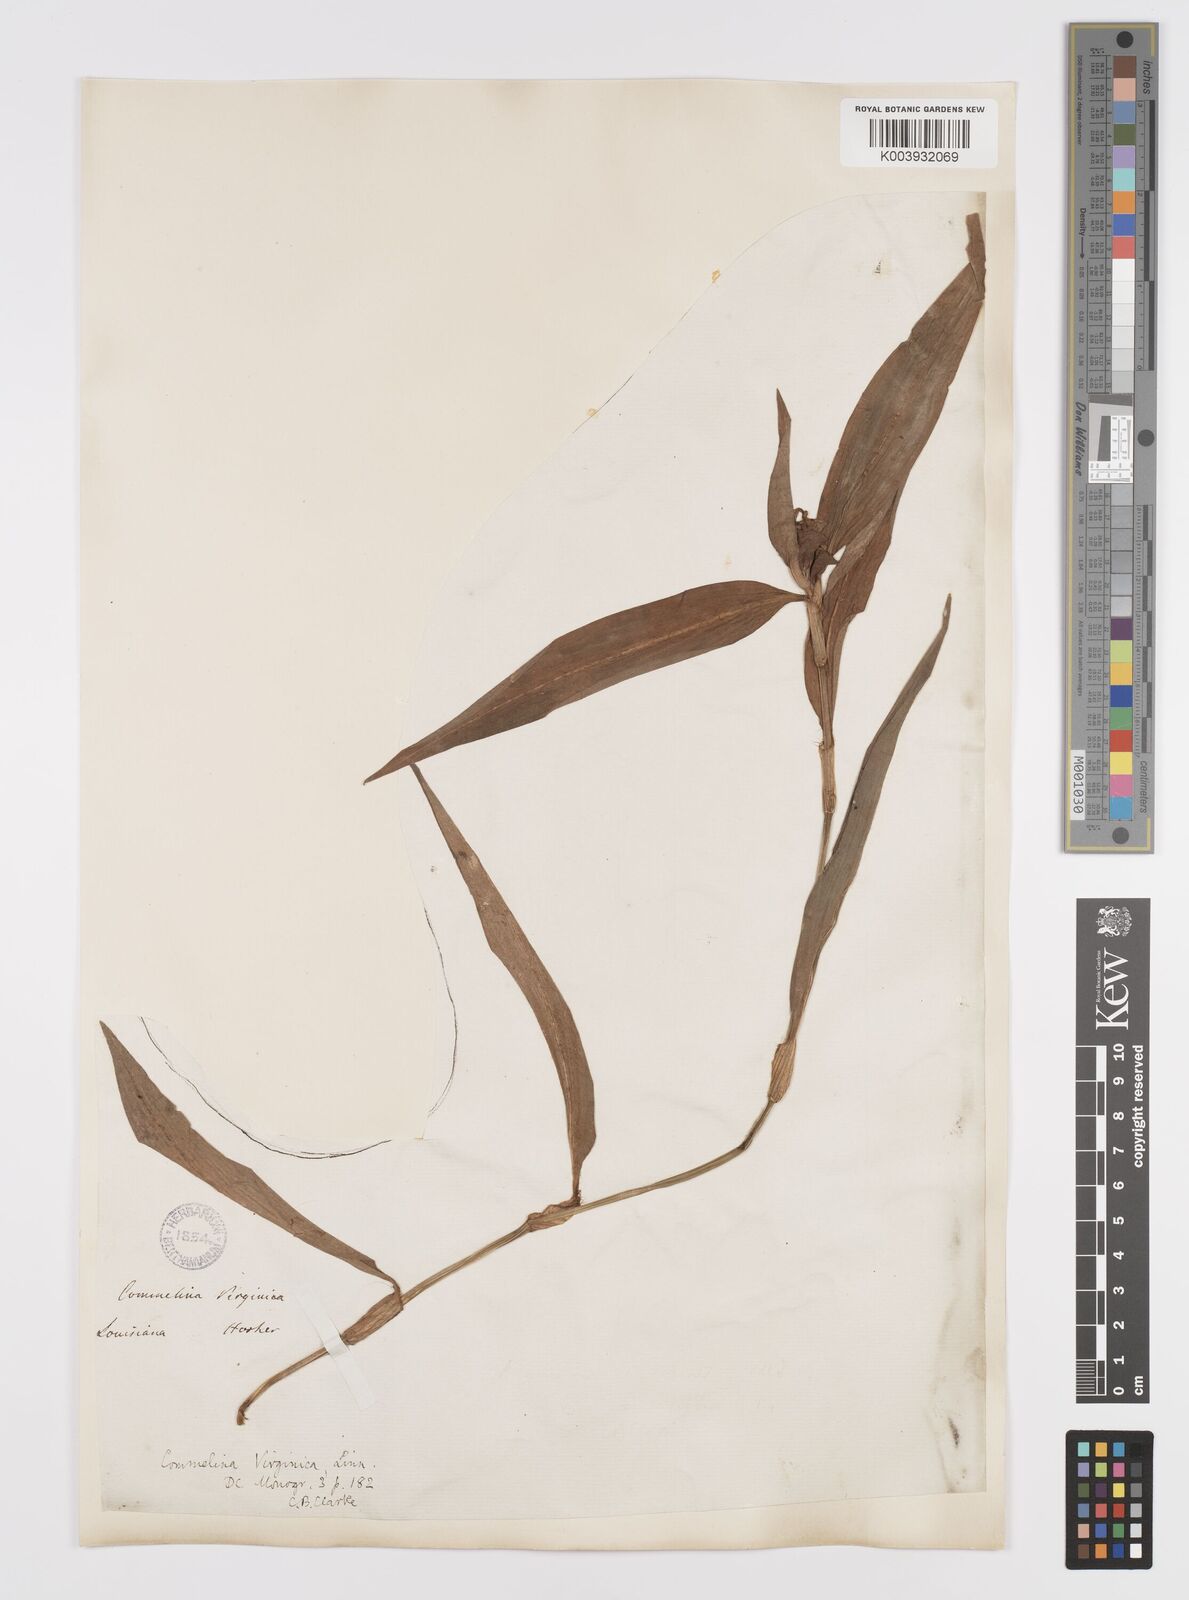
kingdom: Plantae
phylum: Tracheophyta
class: Liliopsida
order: Commelinales
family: Commelinaceae
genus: Commelina
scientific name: Commelina virginica
